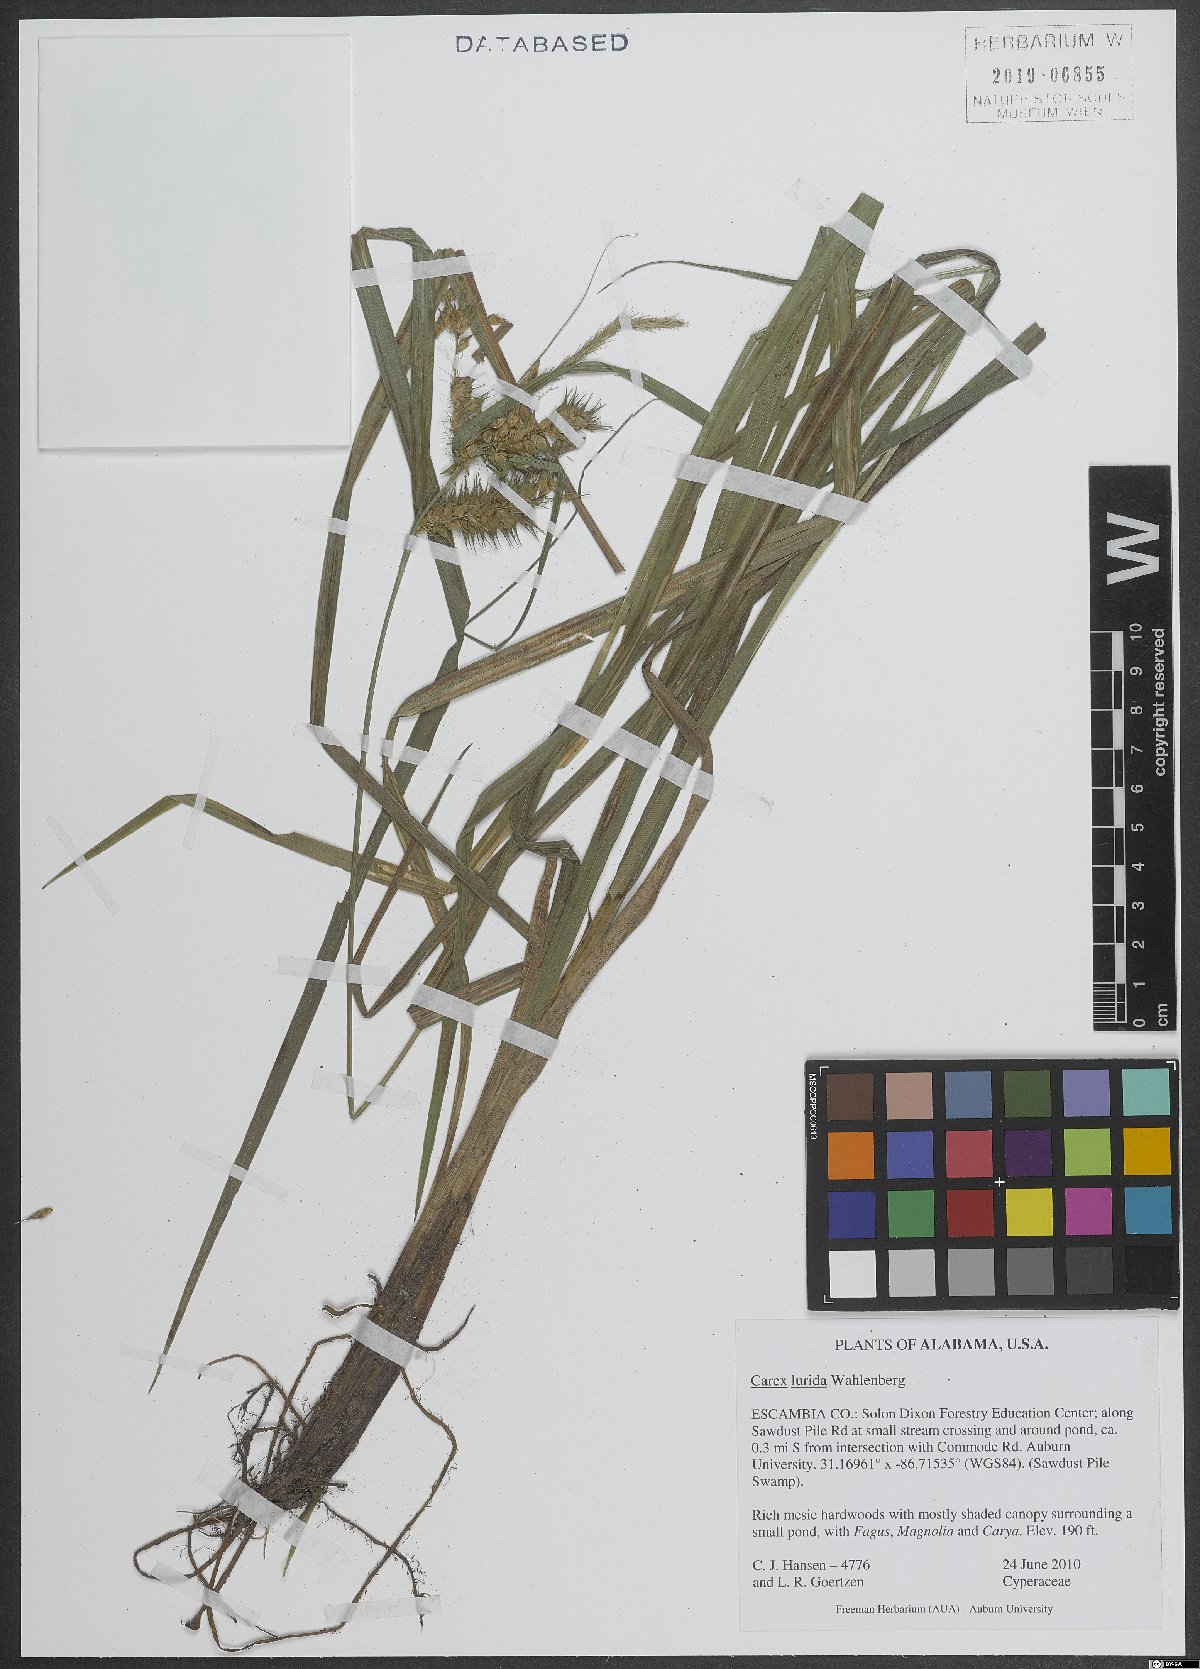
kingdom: Plantae
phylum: Tracheophyta
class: Liliopsida
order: Poales
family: Cyperaceae
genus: Carex
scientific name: Carex lurida
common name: Sallow sedge
